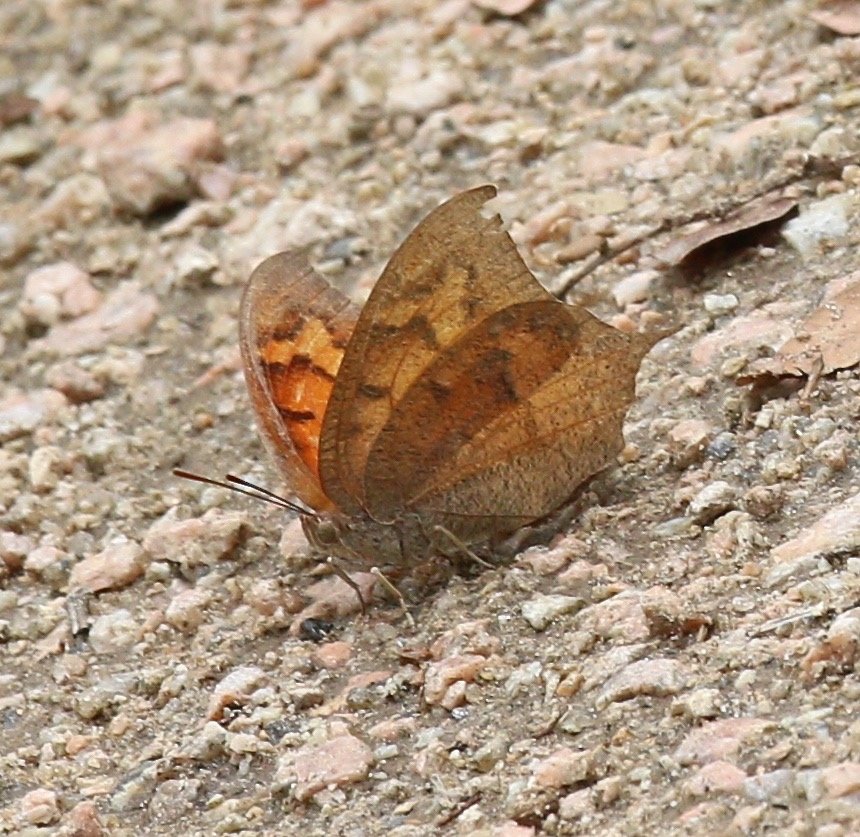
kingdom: Animalia
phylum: Arthropoda
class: Insecta
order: Lepidoptera
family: Nymphalidae
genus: Anaea
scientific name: Anaea andria
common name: Goatweed Leafwing
